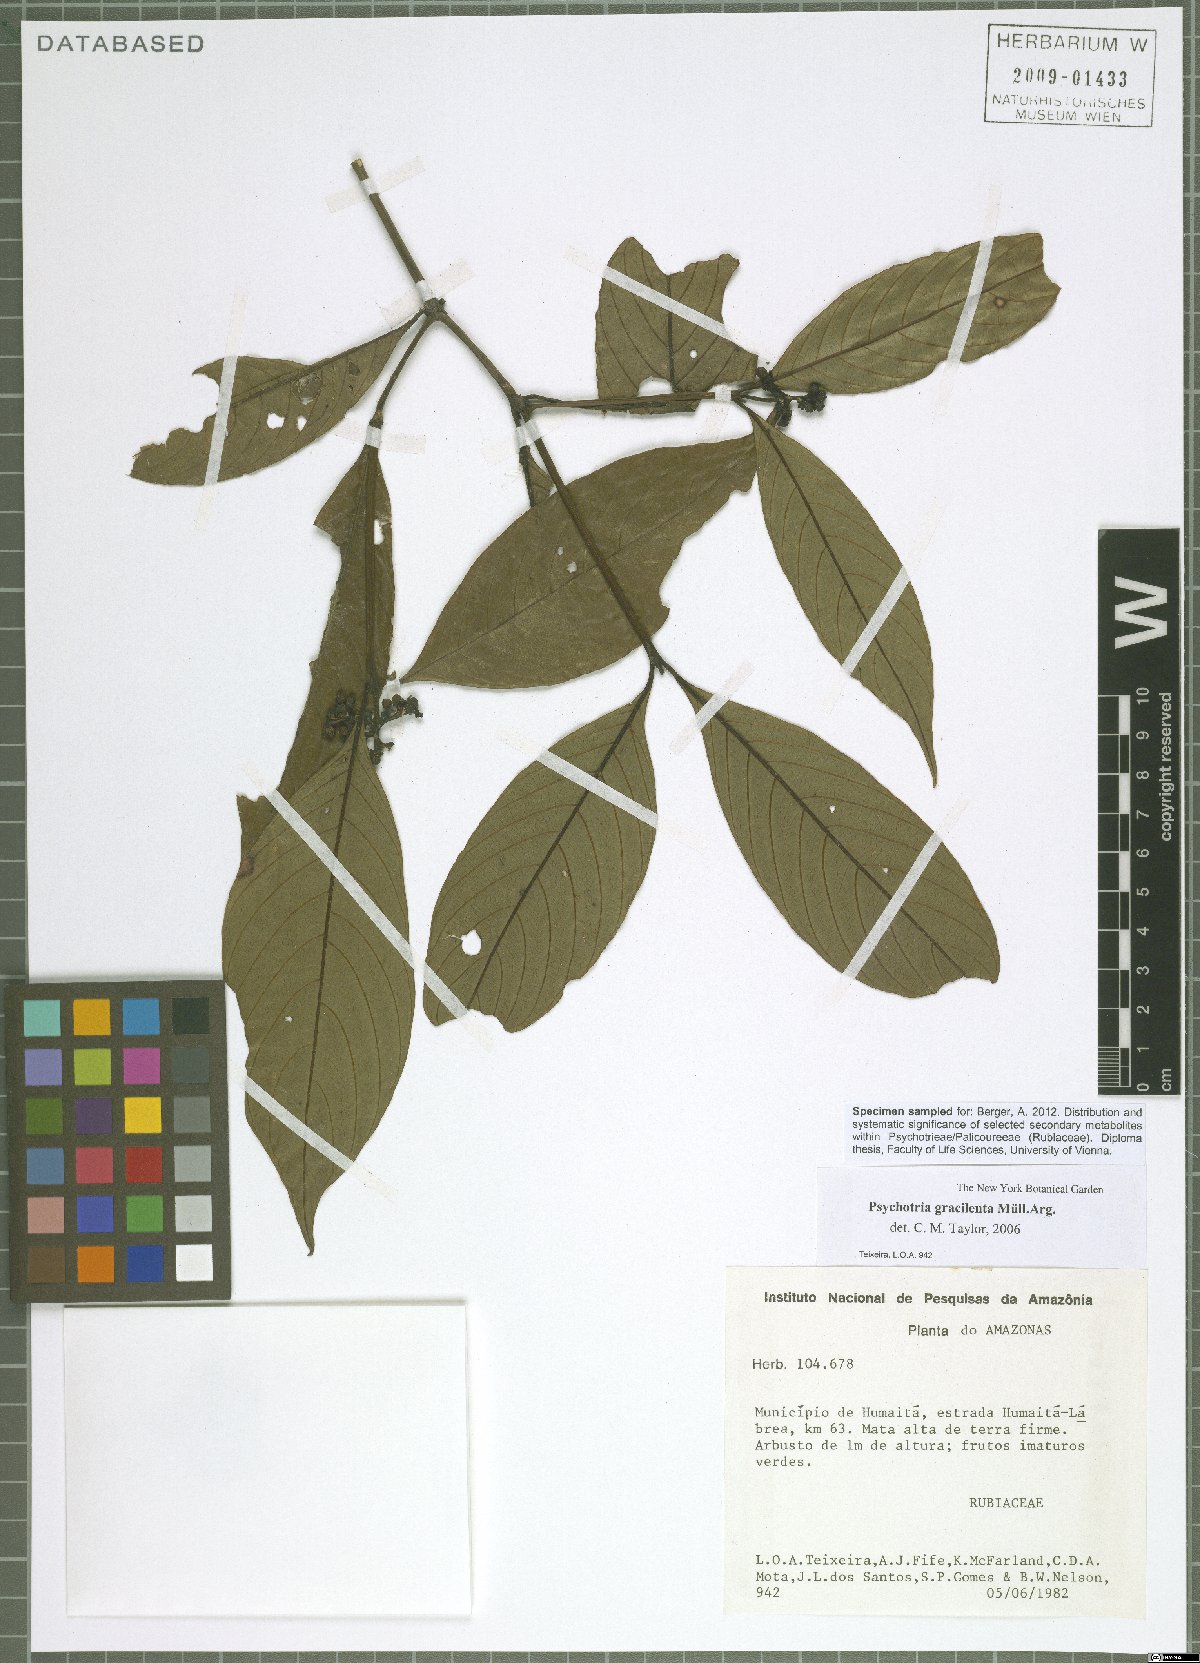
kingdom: Plantae
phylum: Tracheophyta
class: Magnoliopsida
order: Gentianales
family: Rubiaceae
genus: Palicourea
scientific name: Palicourea gracilenta
